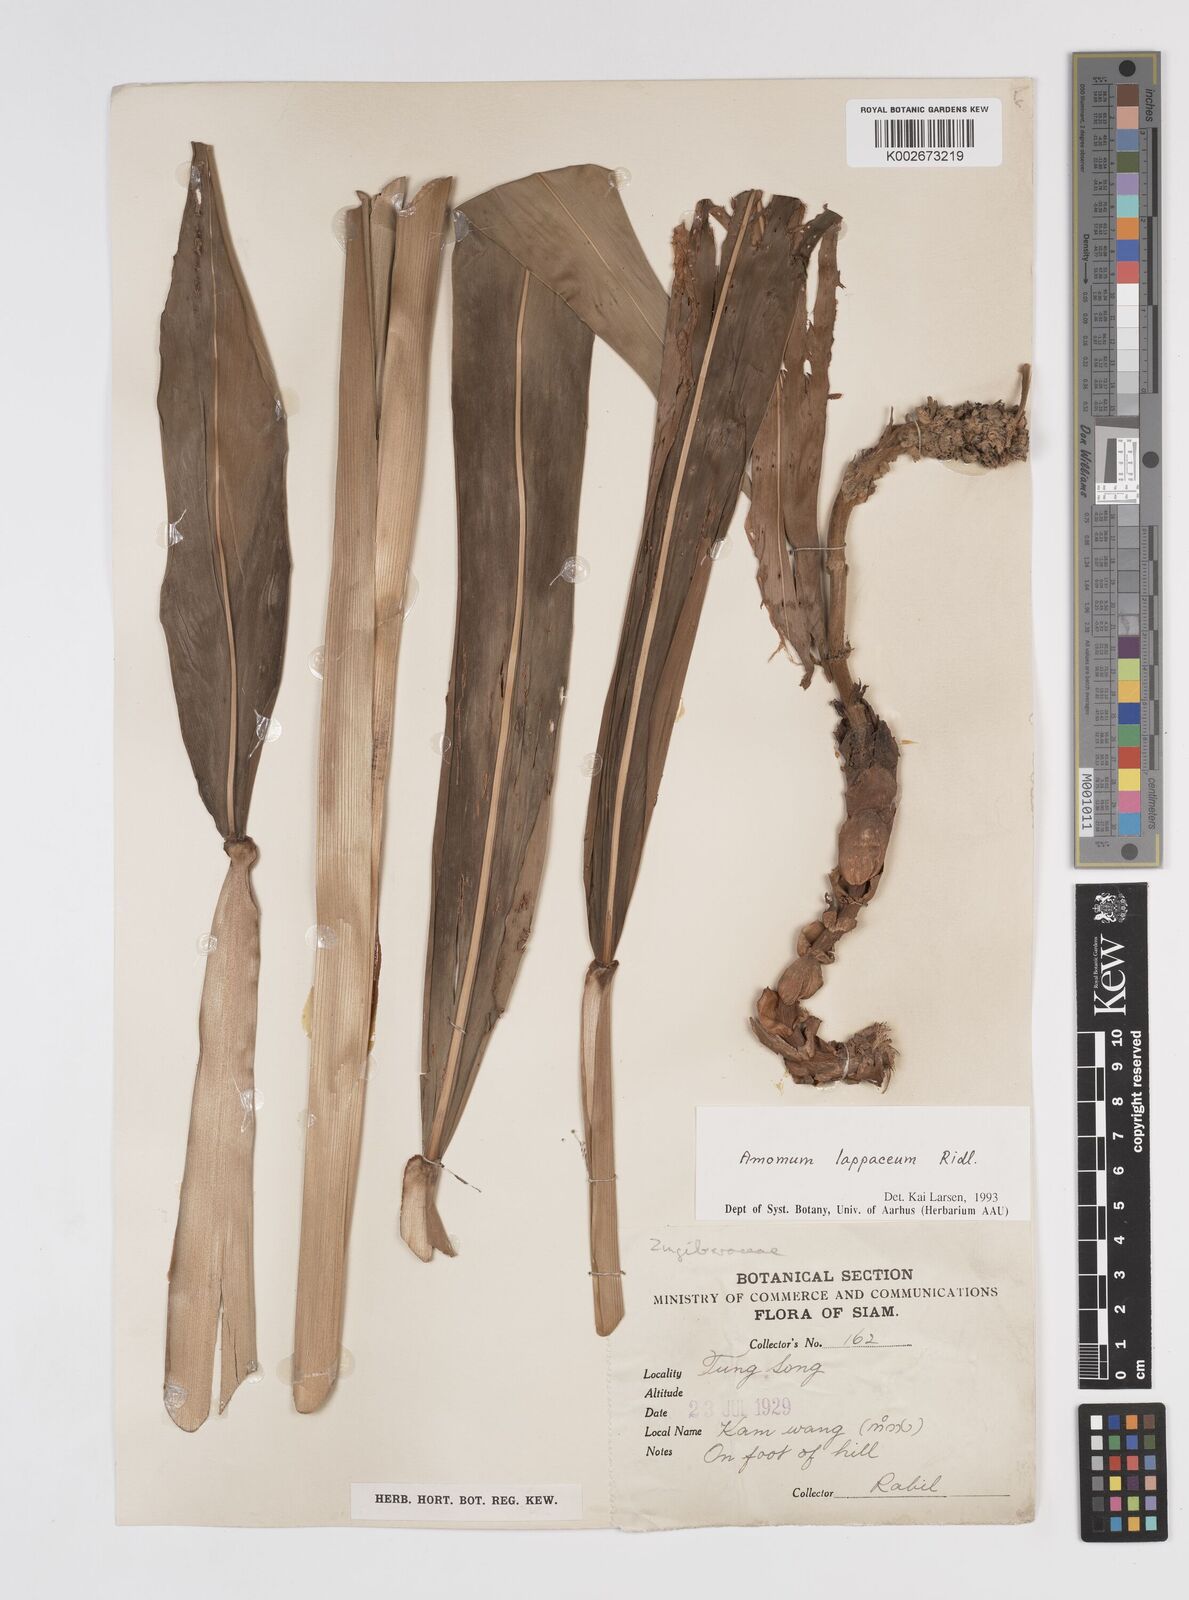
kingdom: Plantae
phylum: Tracheophyta
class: Liliopsida
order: Zingiberales
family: Zingiberaceae
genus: Meistera
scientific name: Meistera lappacea
